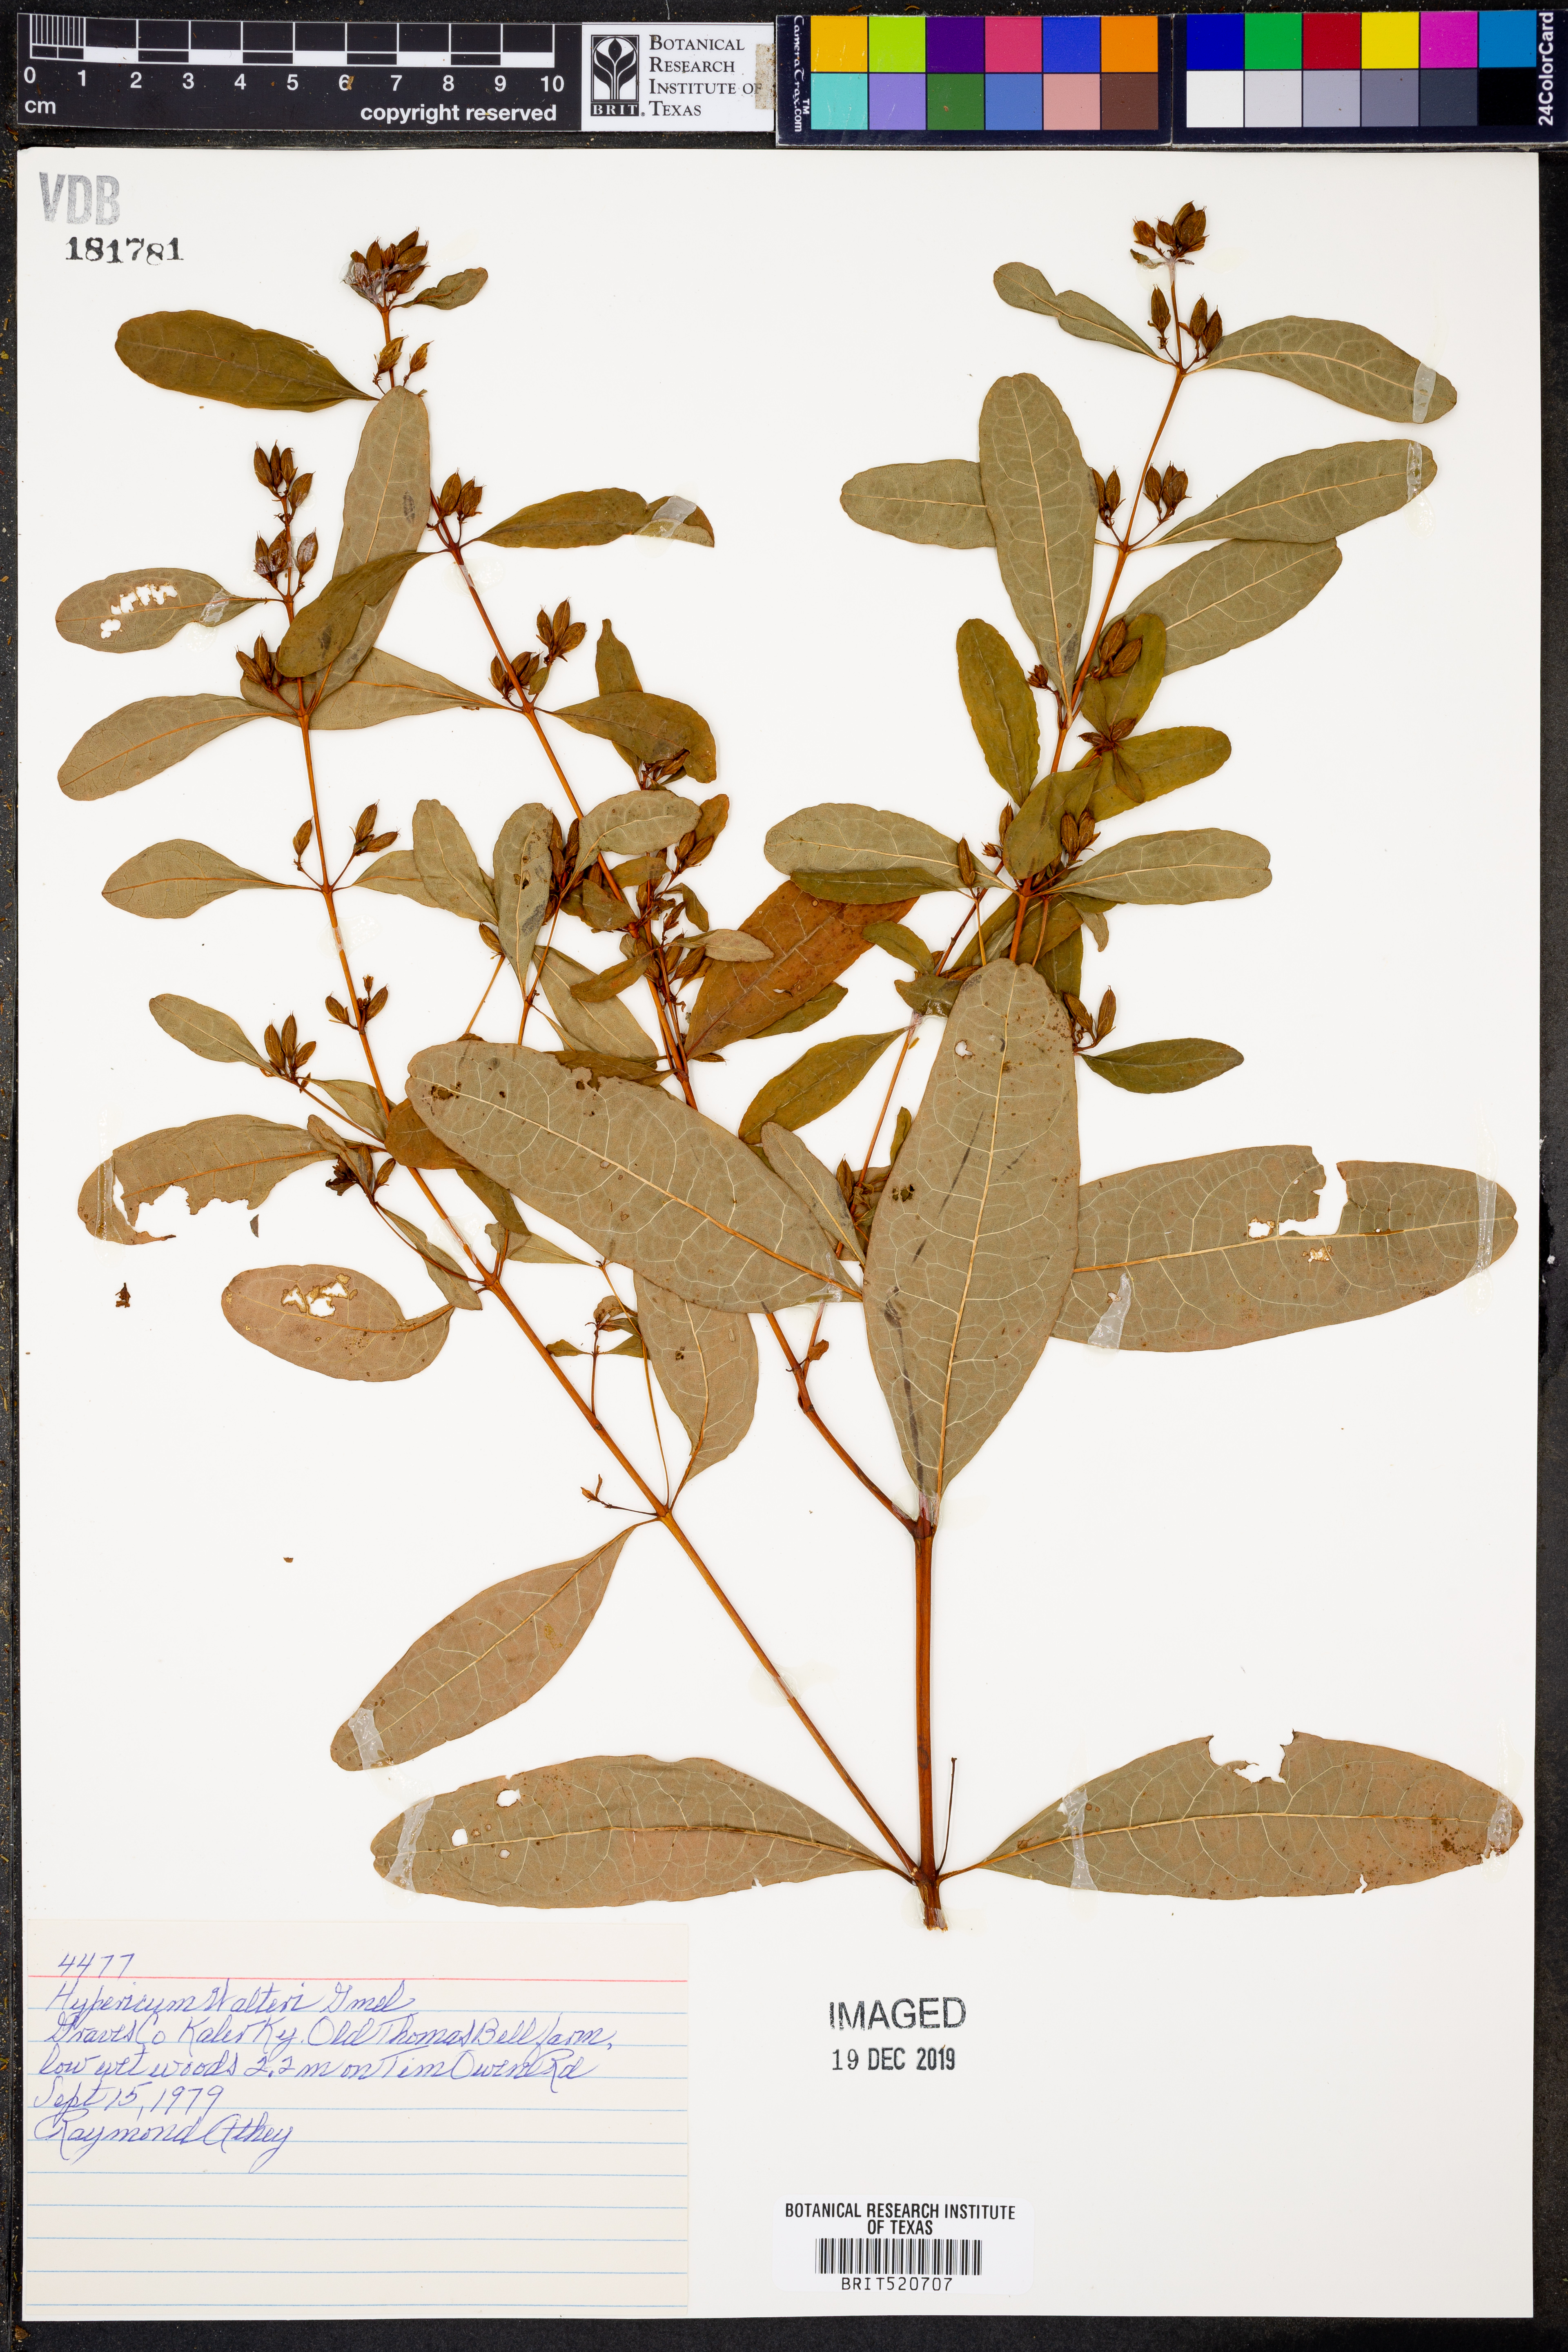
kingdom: Plantae
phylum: Tracheophyta
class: Magnoliopsida
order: Malpighiales
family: Hypericaceae
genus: Triadenum
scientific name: Triadenum walteri
